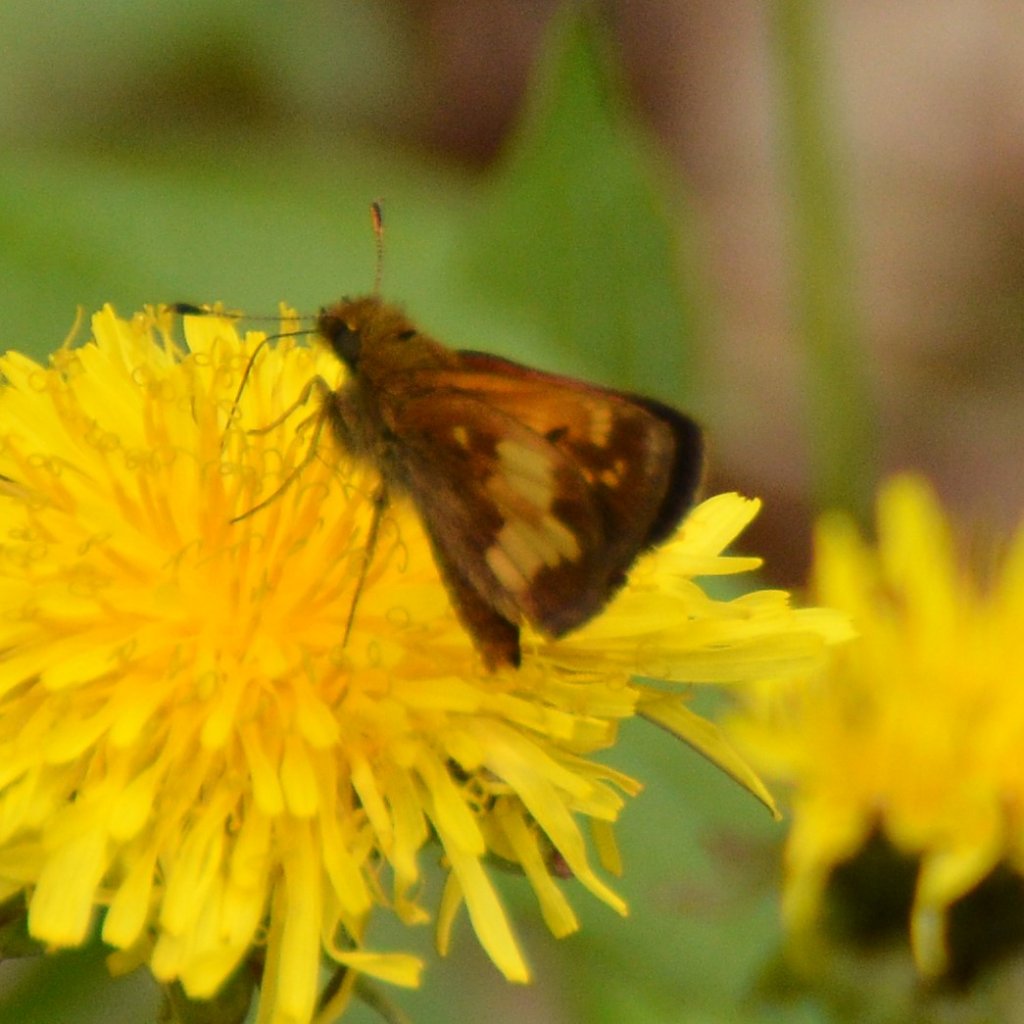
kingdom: Animalia
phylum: Arthropoda
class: Insecta
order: Lepidoptera
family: Hesperiidae
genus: Lon
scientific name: Lon hobomok
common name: Hobomok Skipper
